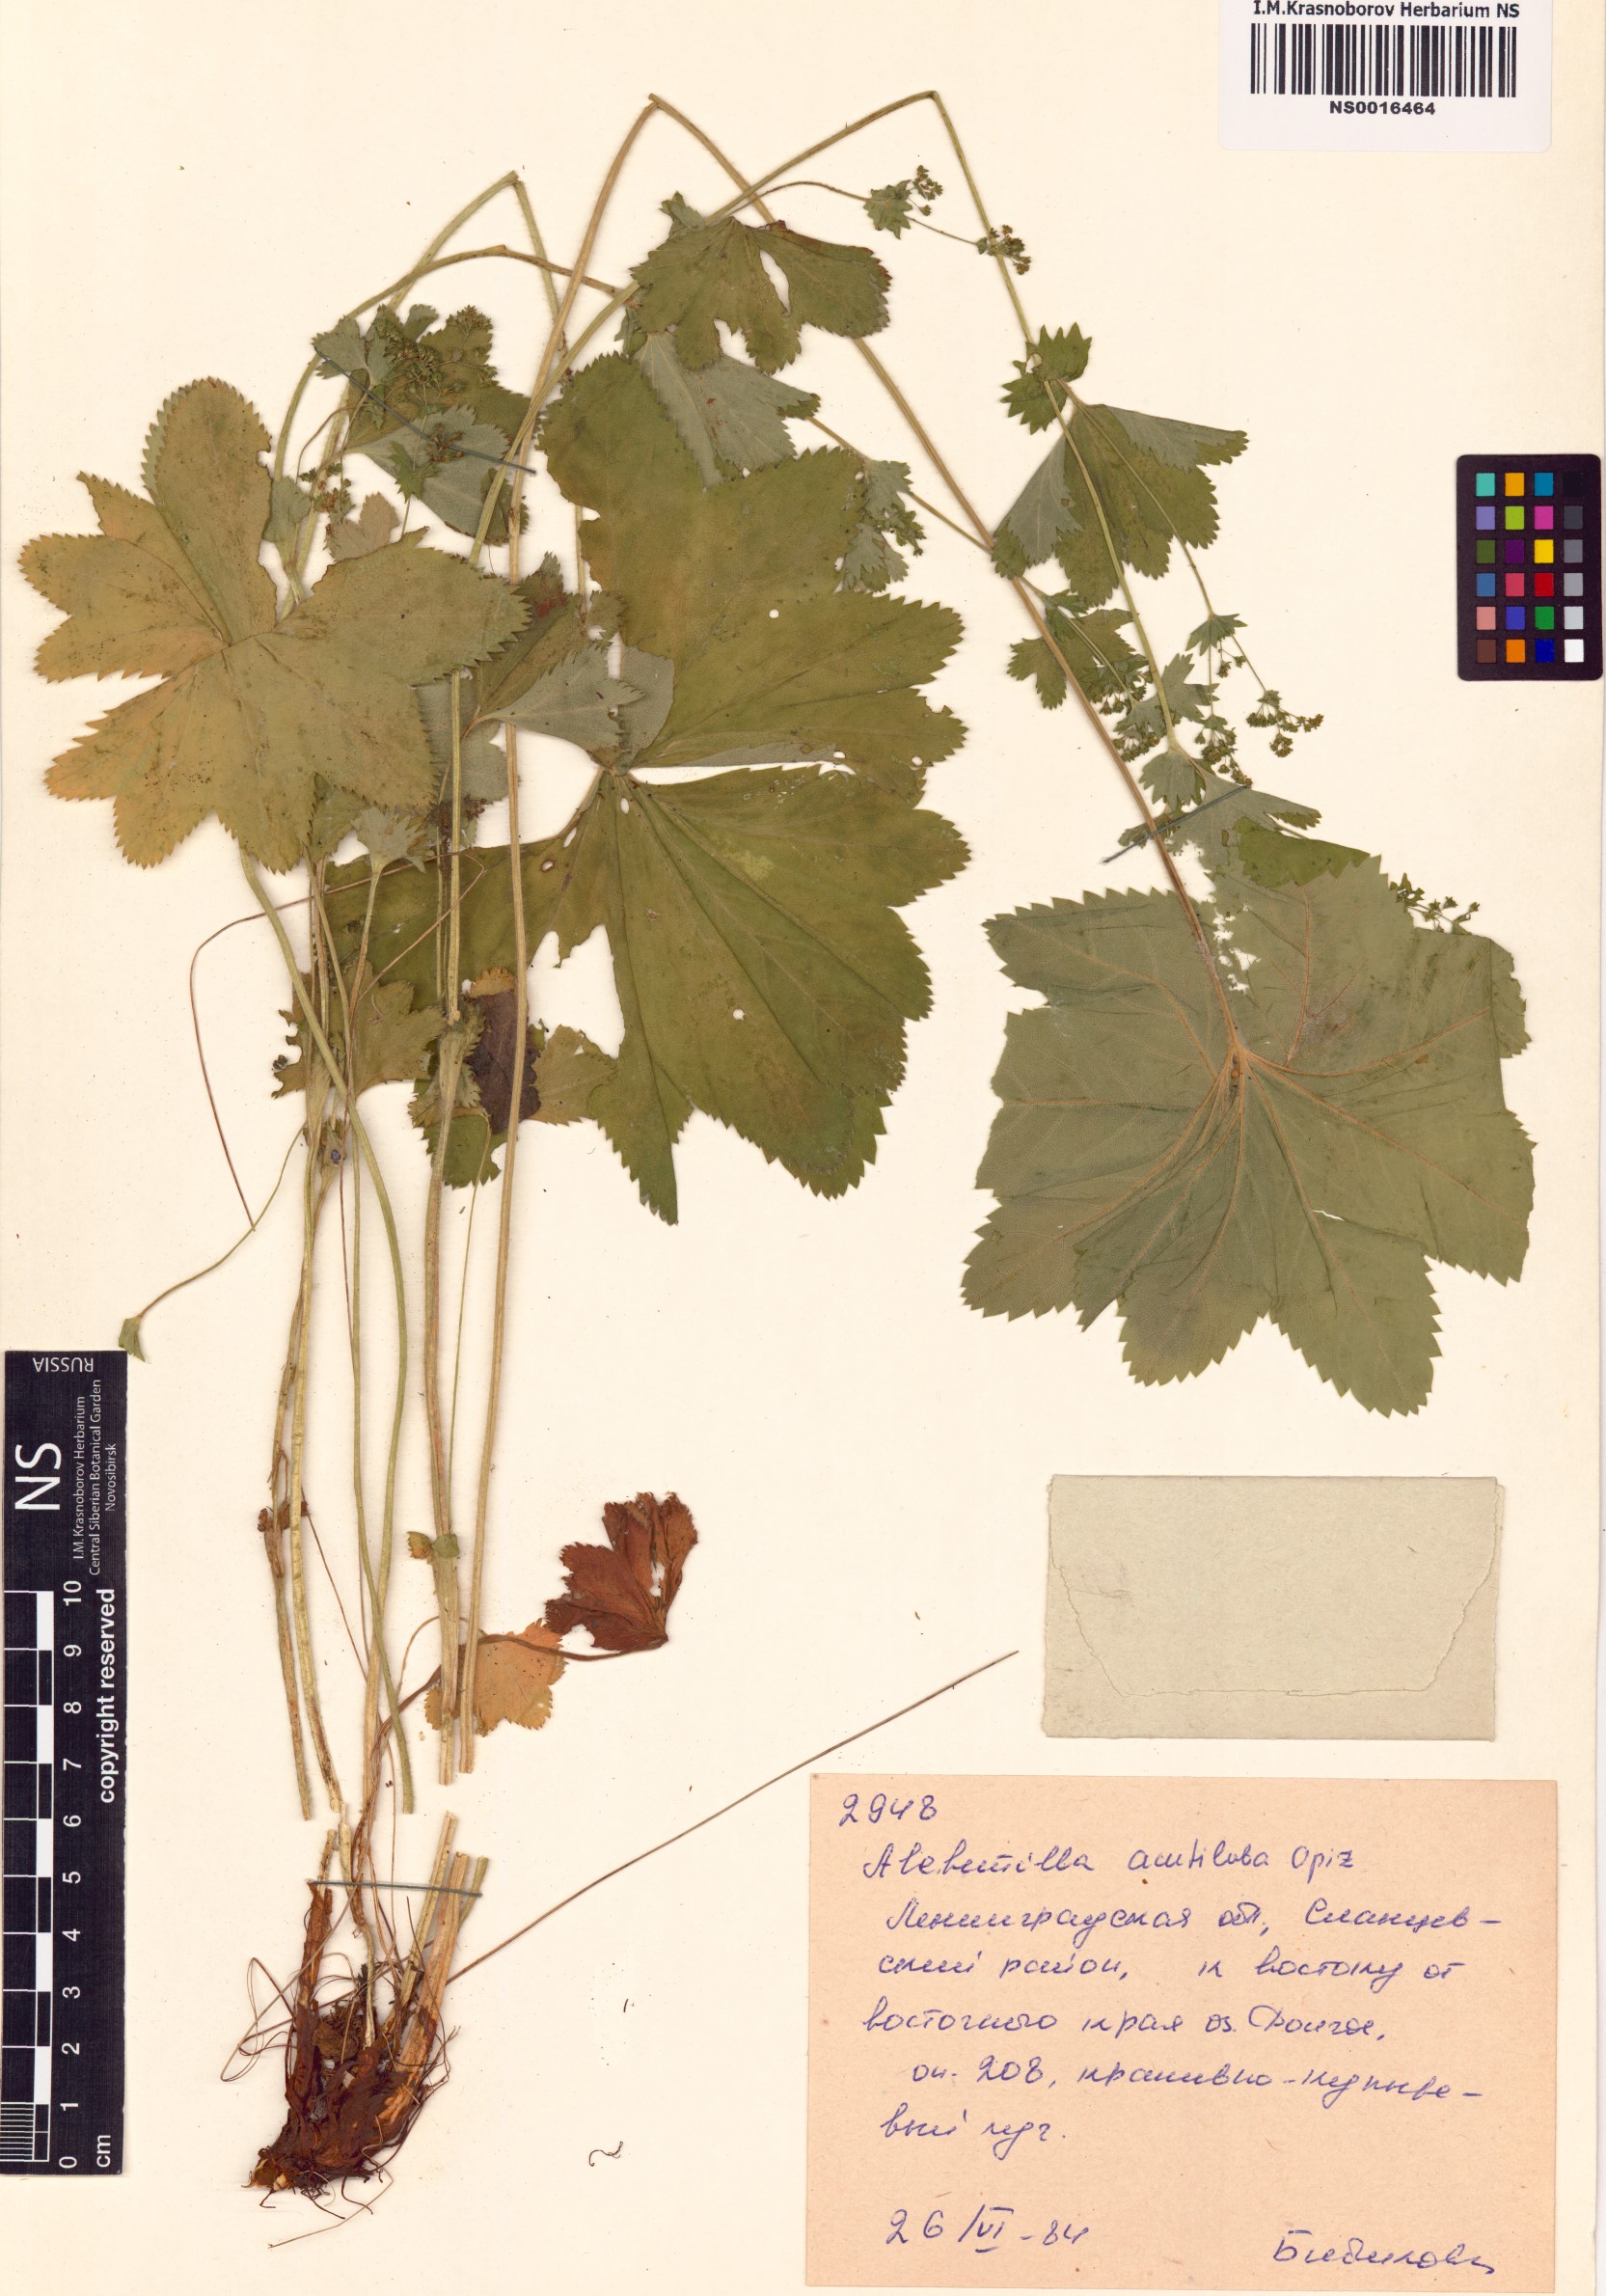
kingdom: Plantae
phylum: Tracheophyta
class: Magnoliopsida
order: Rosales
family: Rosaceae
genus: Alchemilla
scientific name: Alchemilla mollis
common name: Lady's-mantle
